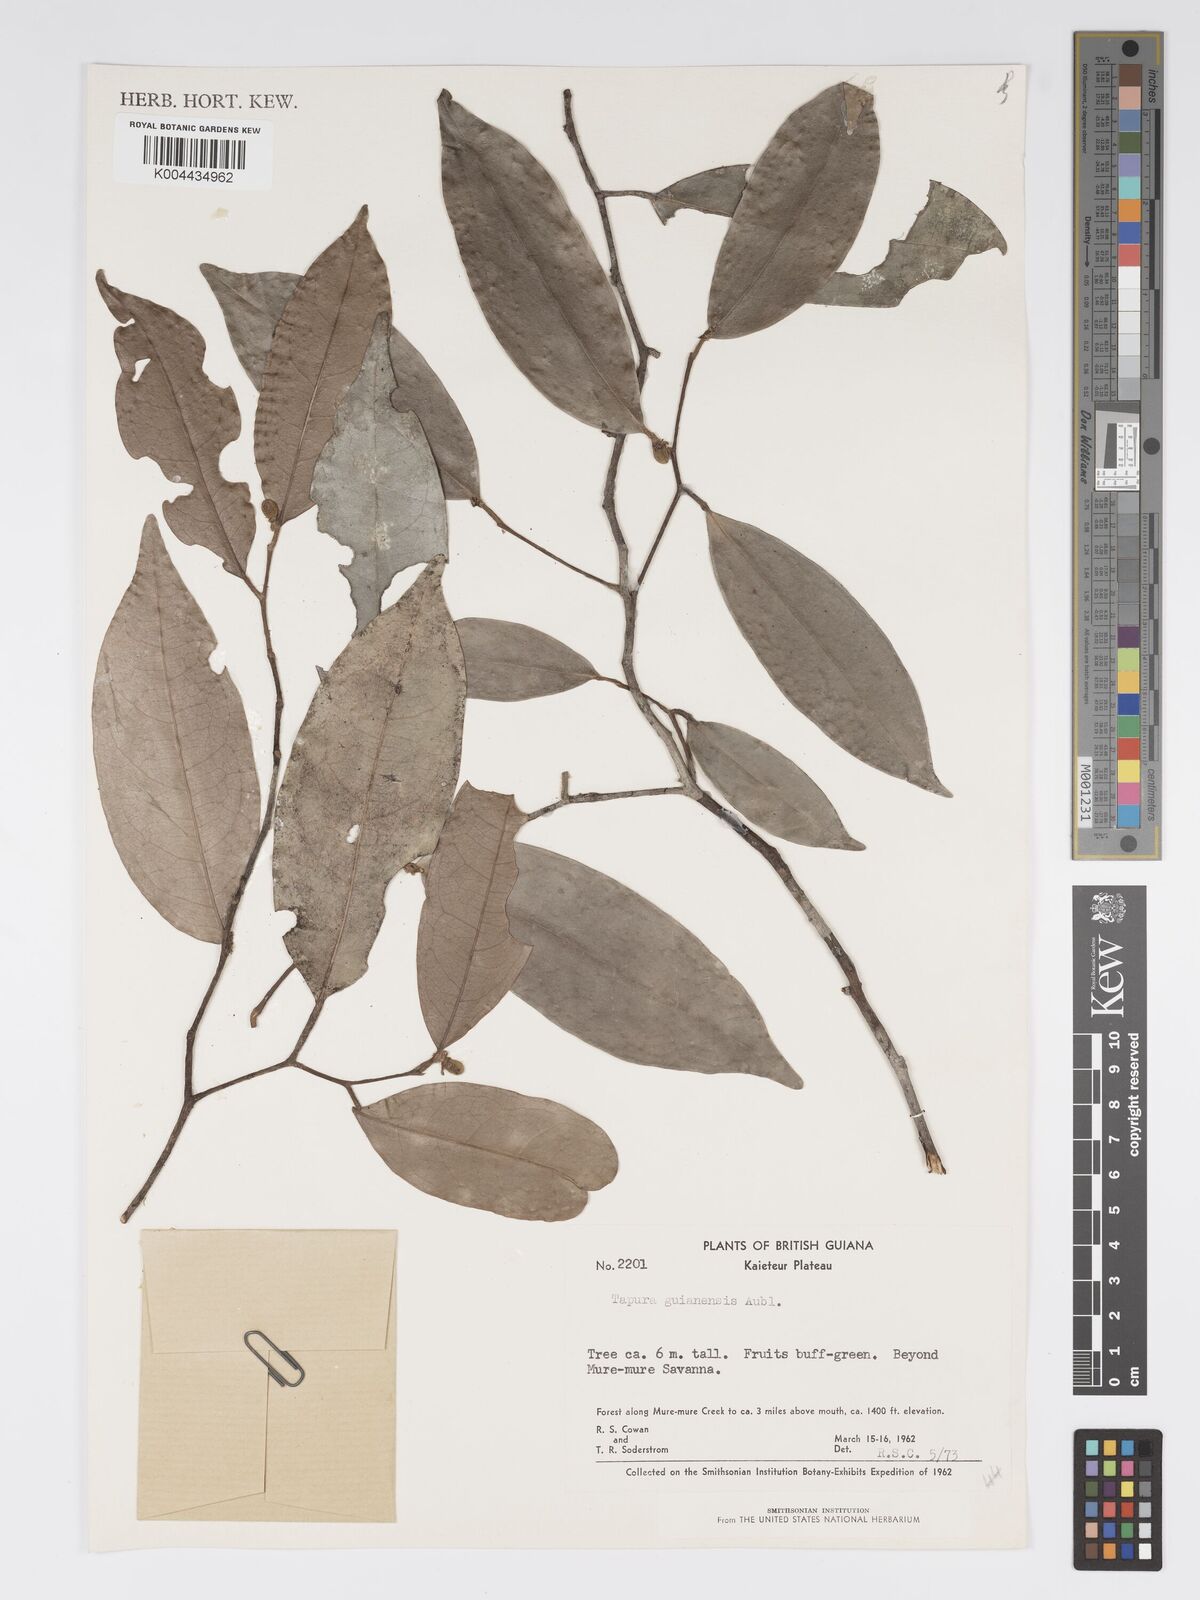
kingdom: Plantae
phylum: Tracheophyta
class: Magnoliopsida
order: Malpighiales
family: Dichapetalaceae
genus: Tapura
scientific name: Tapura guianensis
